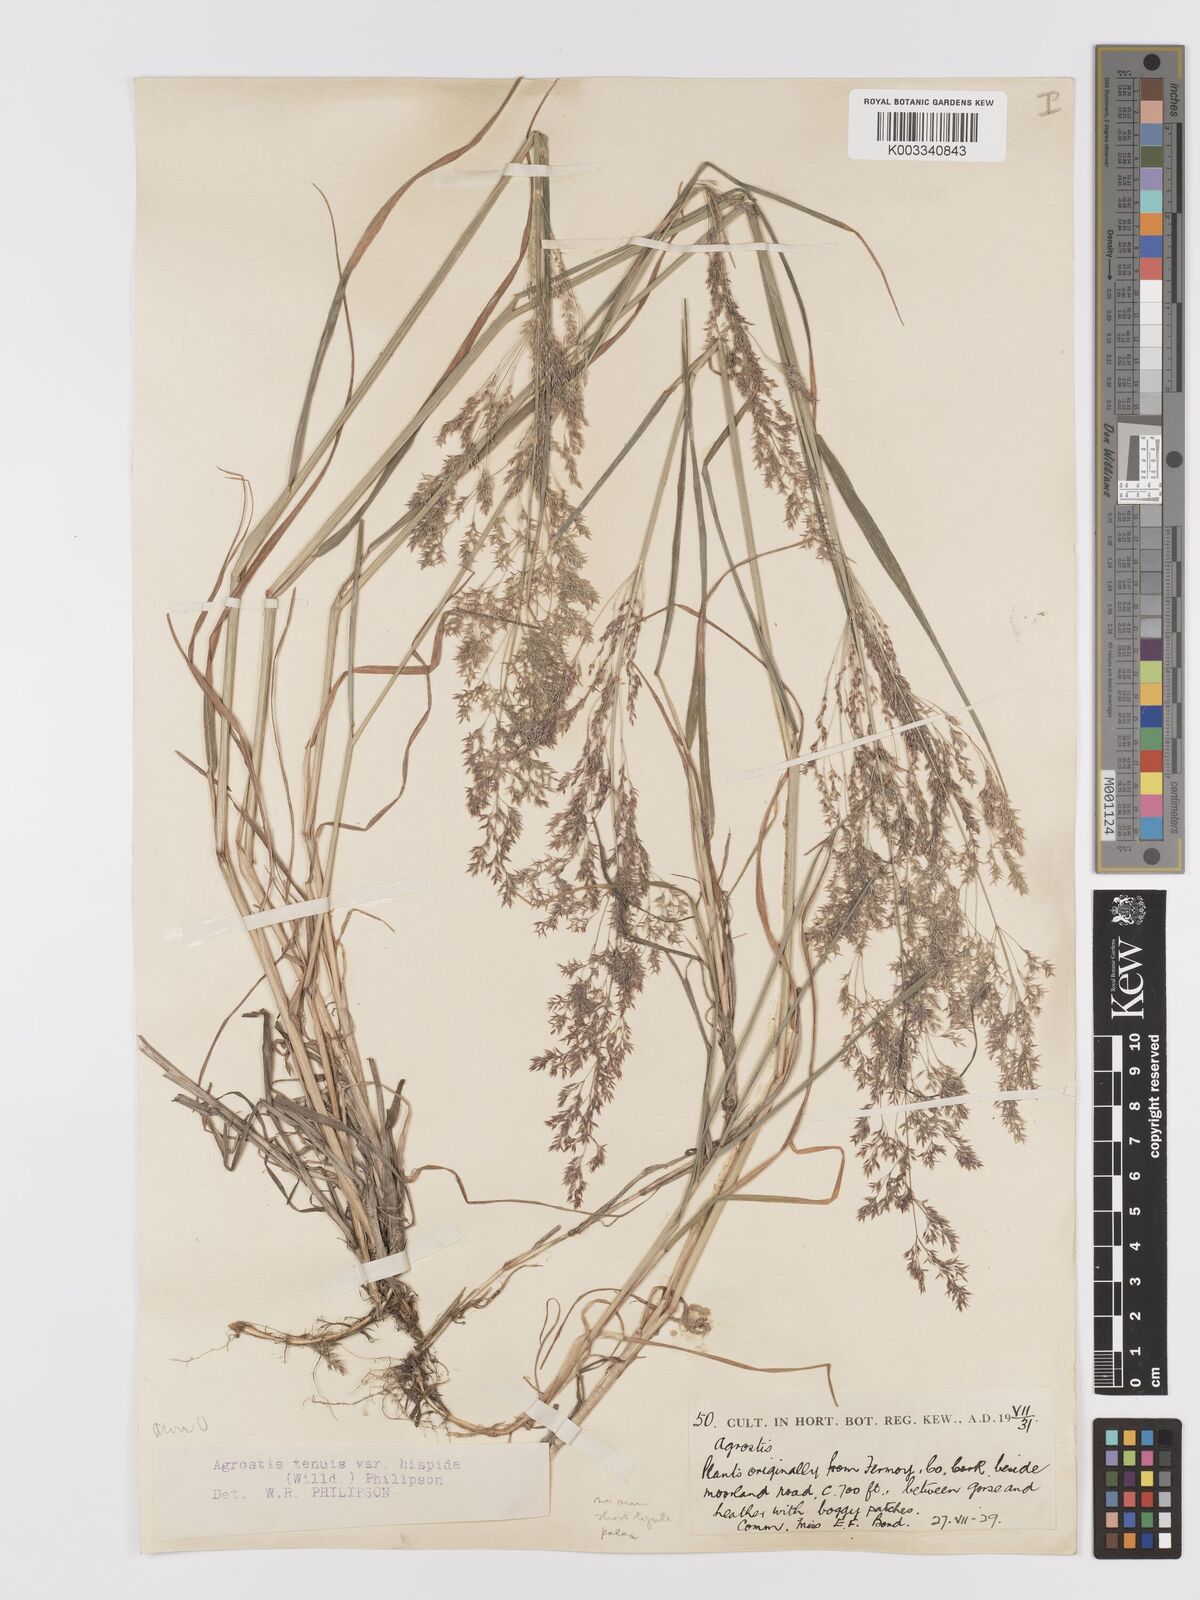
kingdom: Plantae
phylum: Tracheophyta
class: Liliopsida
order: Poales
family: Poaceae
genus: Agrostis
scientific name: Agrostis capillaris
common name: Colonial bentgrass
